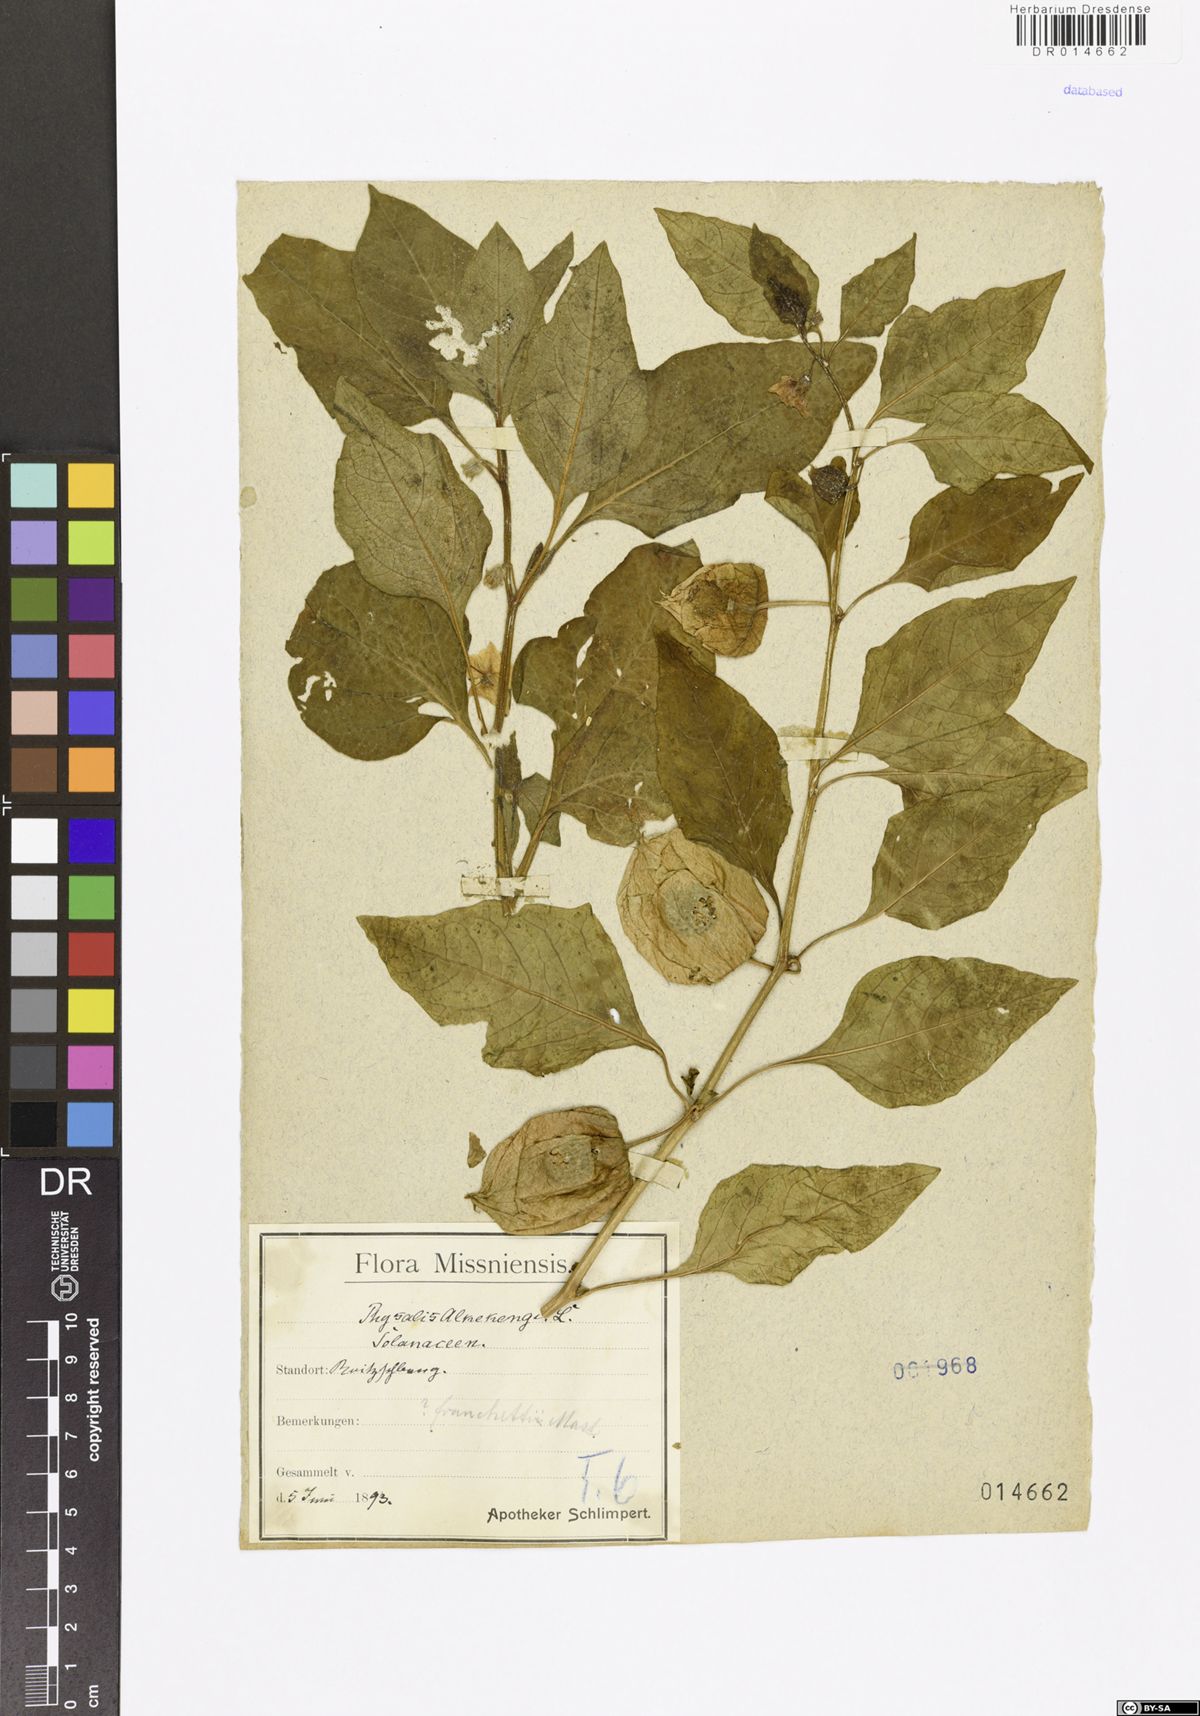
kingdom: Plantae
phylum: Tracheophyta
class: Magnoliopsida
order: Solanales
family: Solanaceae
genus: Alkekengi
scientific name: Alkekengi officinarum
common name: Japanese-lantern
